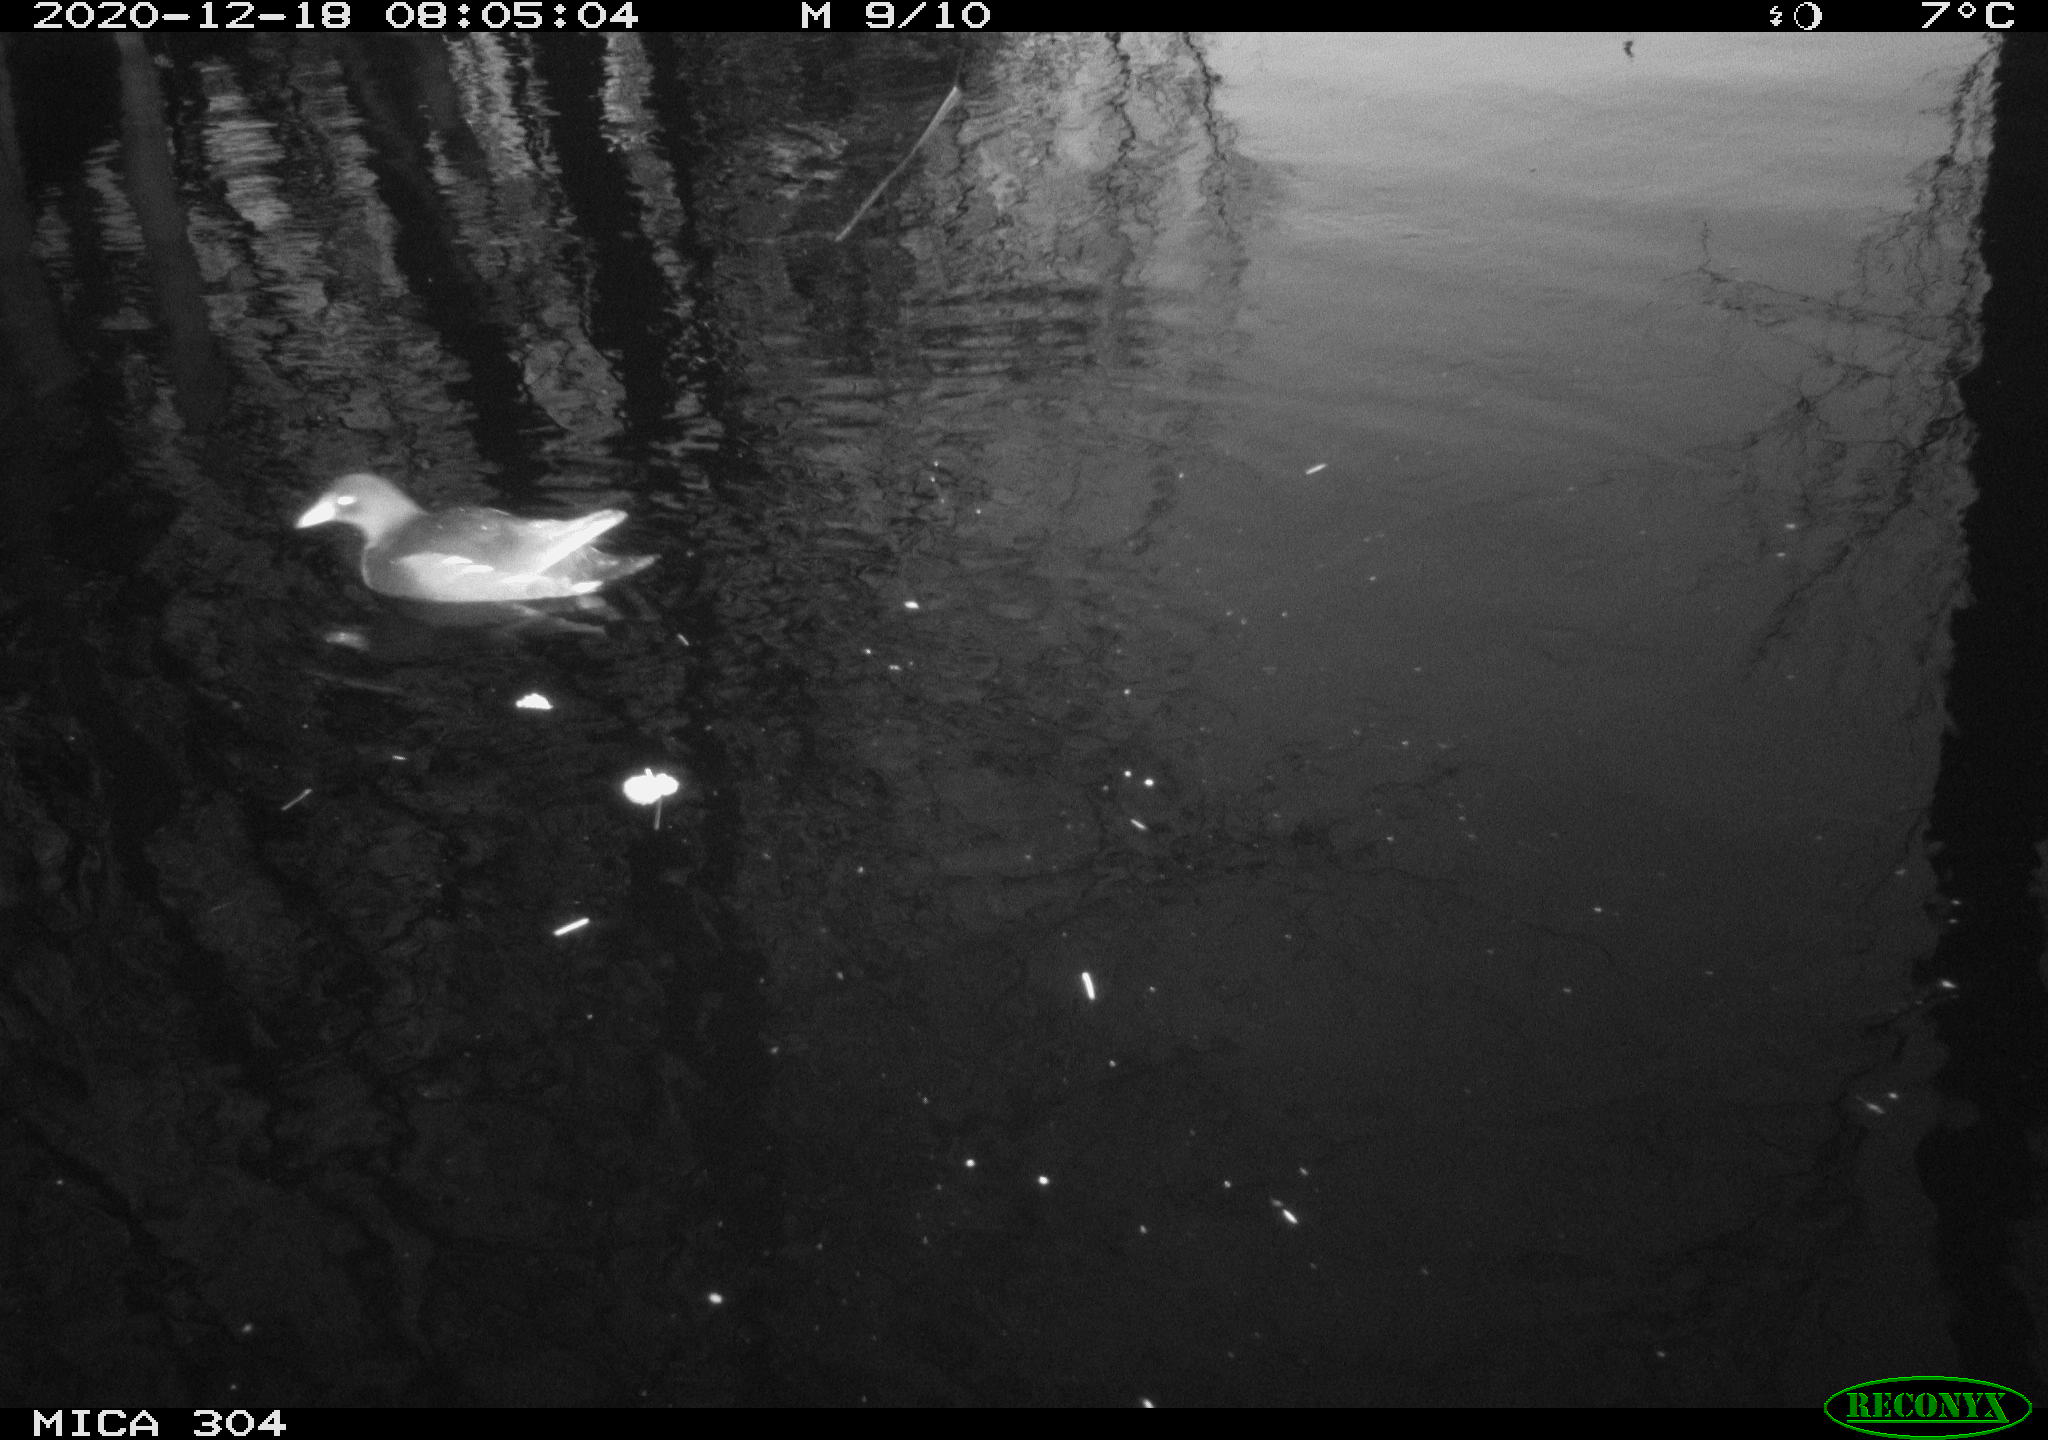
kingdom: Animalia
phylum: Chordata
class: Aves
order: Gruiformes
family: Rallidae
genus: Gallinula
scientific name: Gallinula chloropus
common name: Common moorhen
